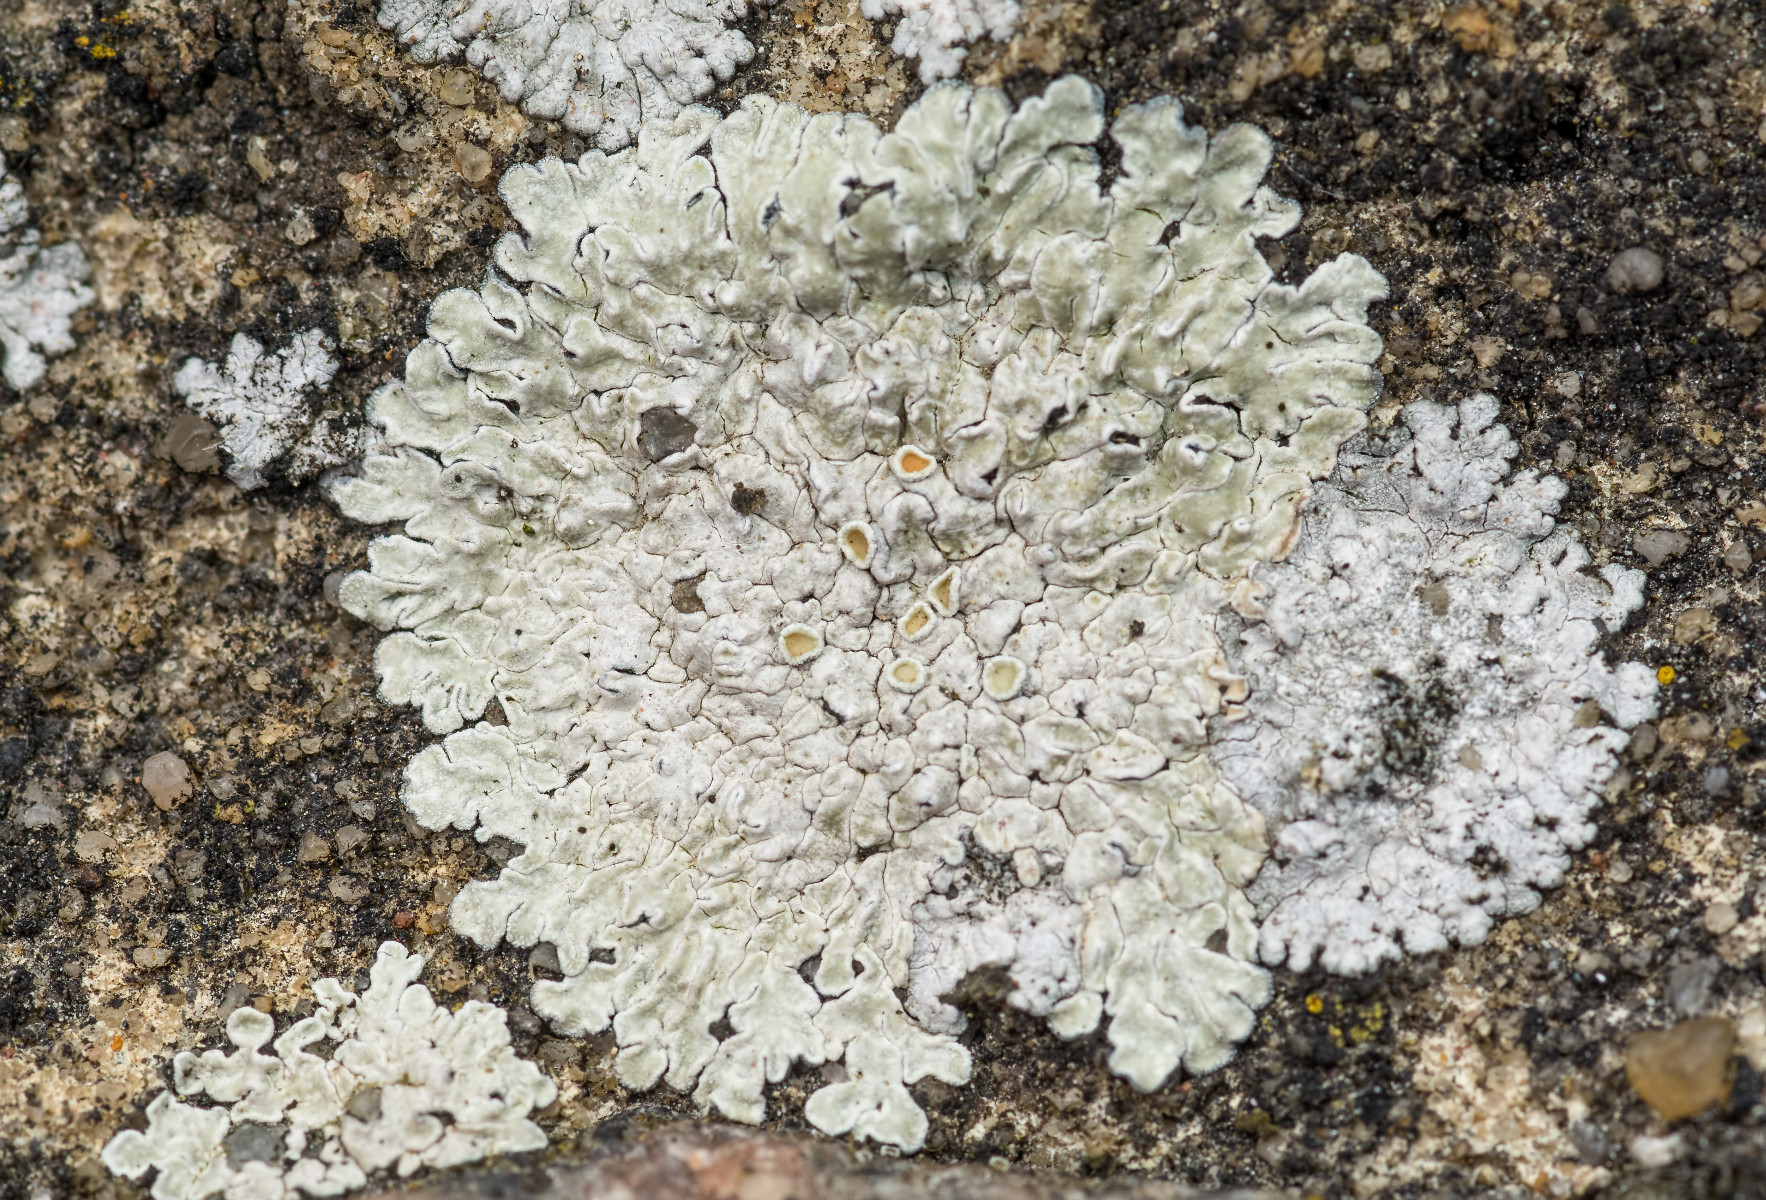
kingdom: Fungi
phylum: Ascomycota
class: Lecanoromycetes
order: Lecanorales
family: Lecanoraceae
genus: Protoparmeliopsis
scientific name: Protoparmeliopsis muralis
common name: randfliget kantskivelav
